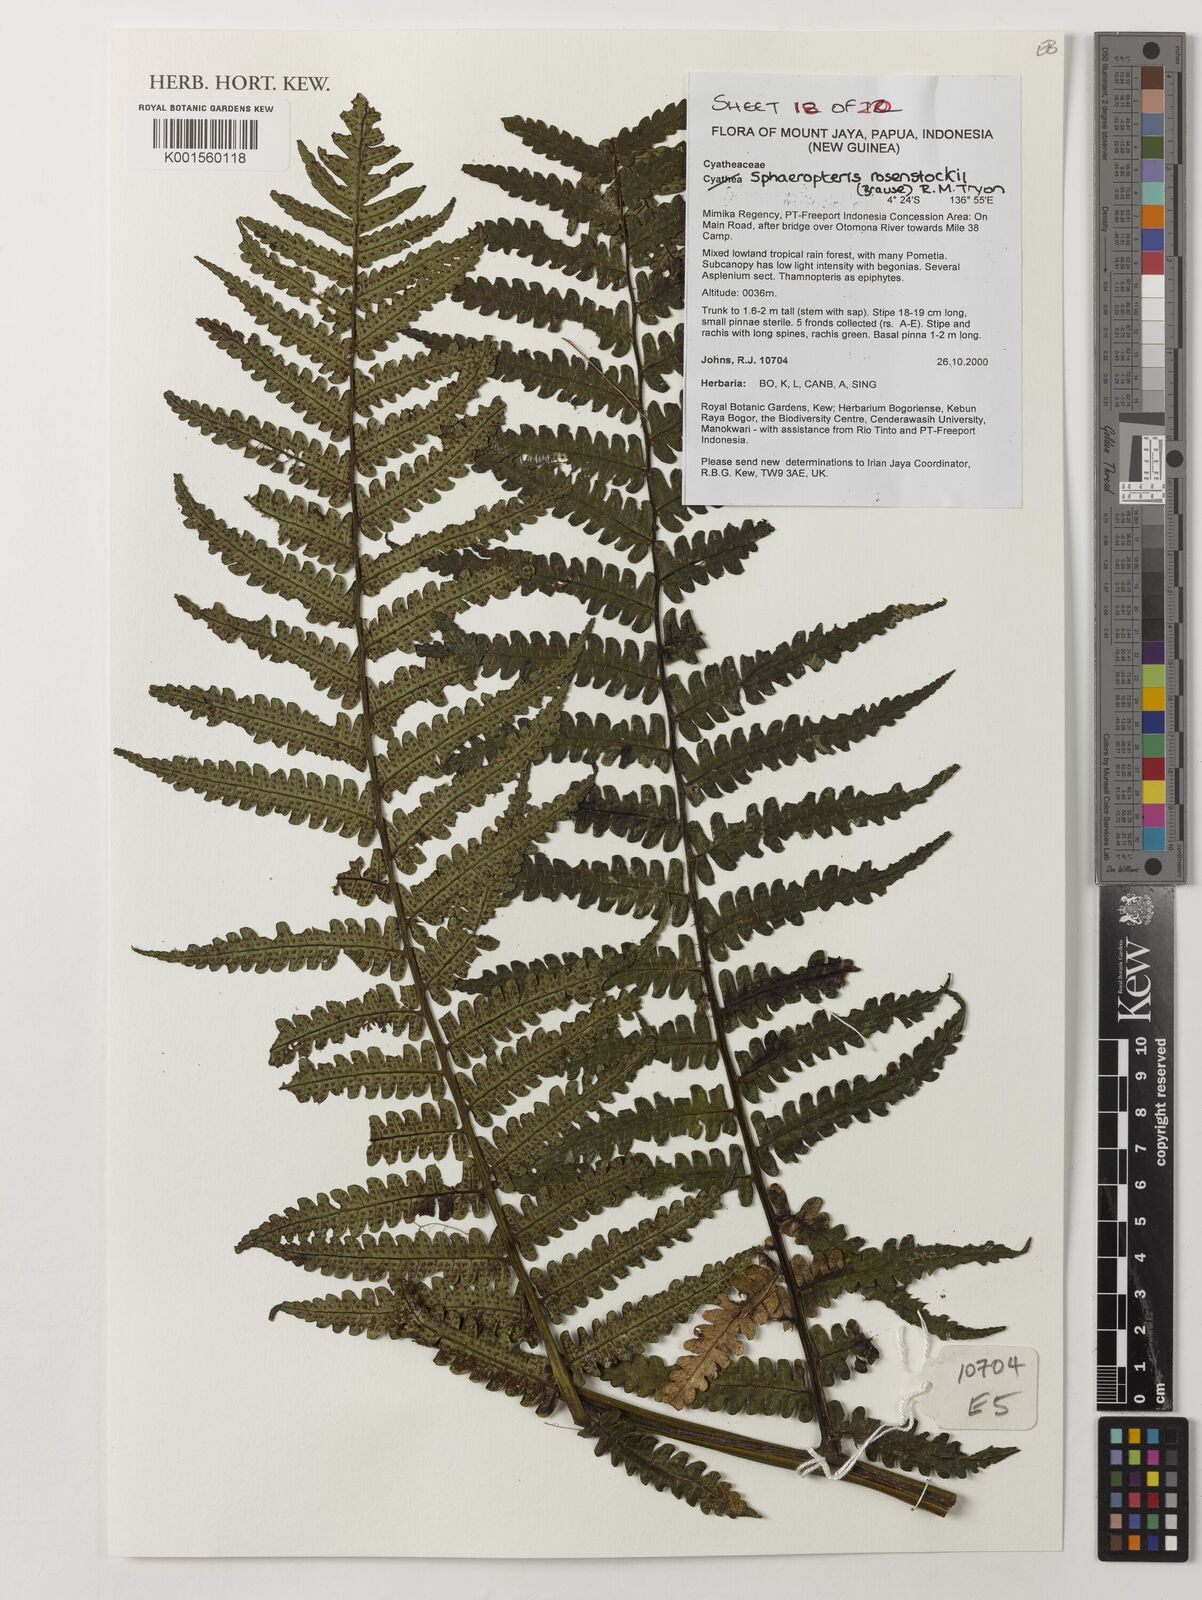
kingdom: Plantae
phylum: Tracheophyta
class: Polypodiopsida
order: Cyatheales
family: Cyatheaceae
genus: Sphaeropteris
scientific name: Sphaeropteris rosenstockii
